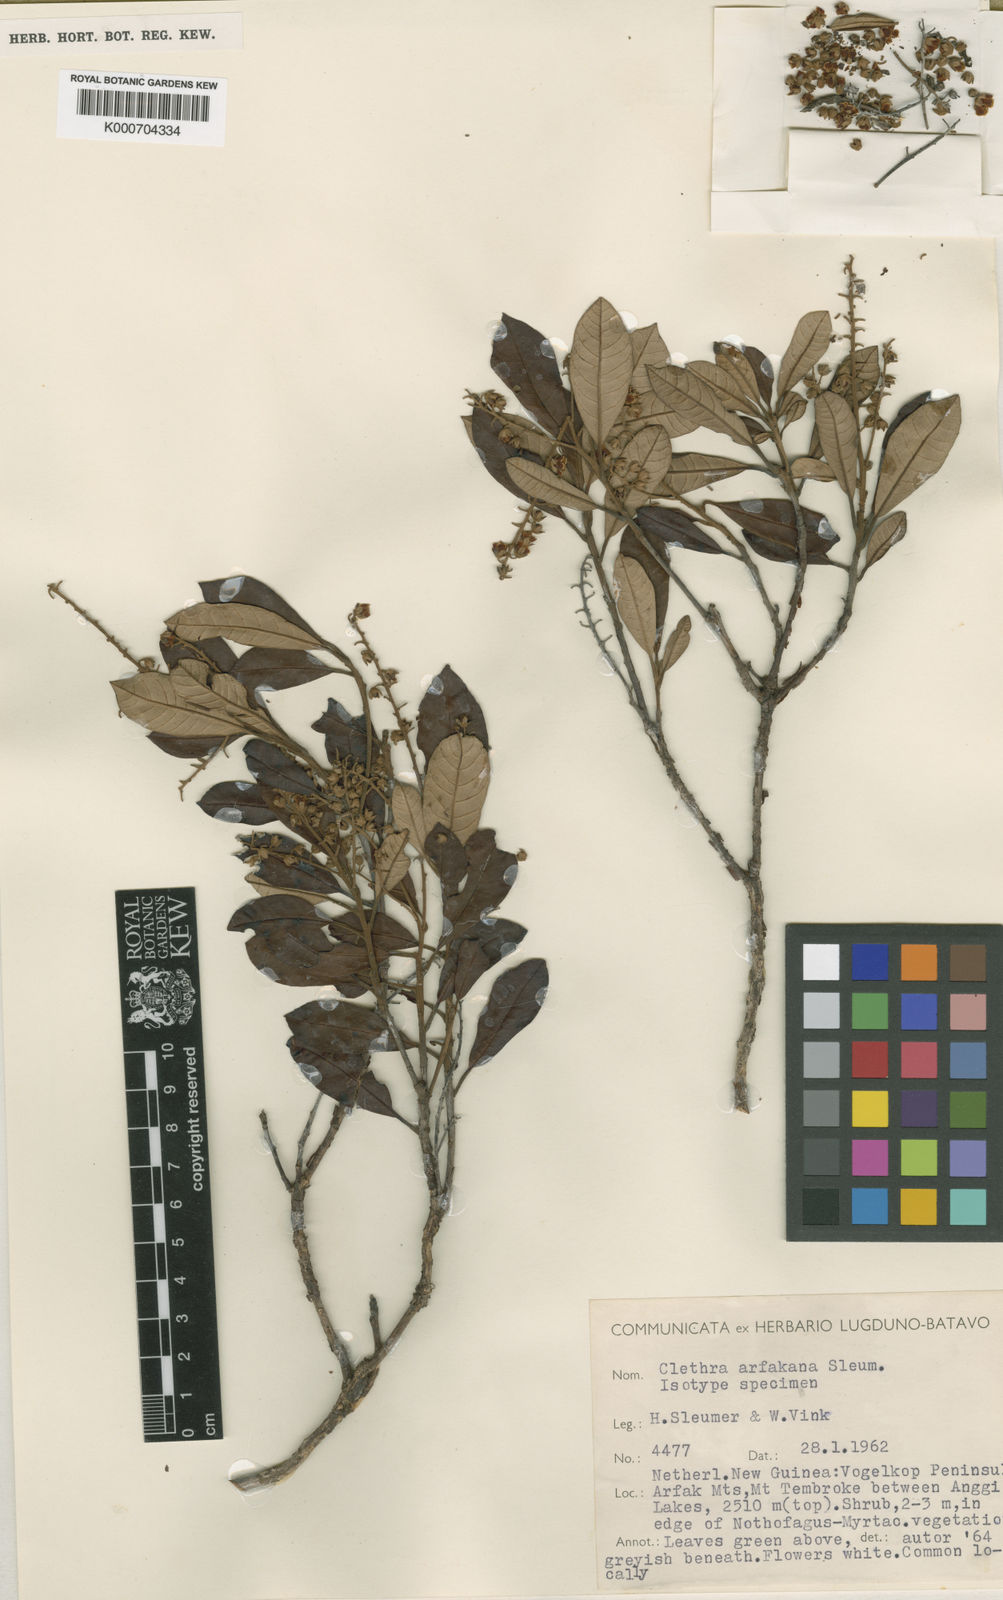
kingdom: Plantae
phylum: Tracheophyta
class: Magnoliopsida
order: Ericales
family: Clethraceae
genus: Clethra
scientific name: Clethra arfakana
